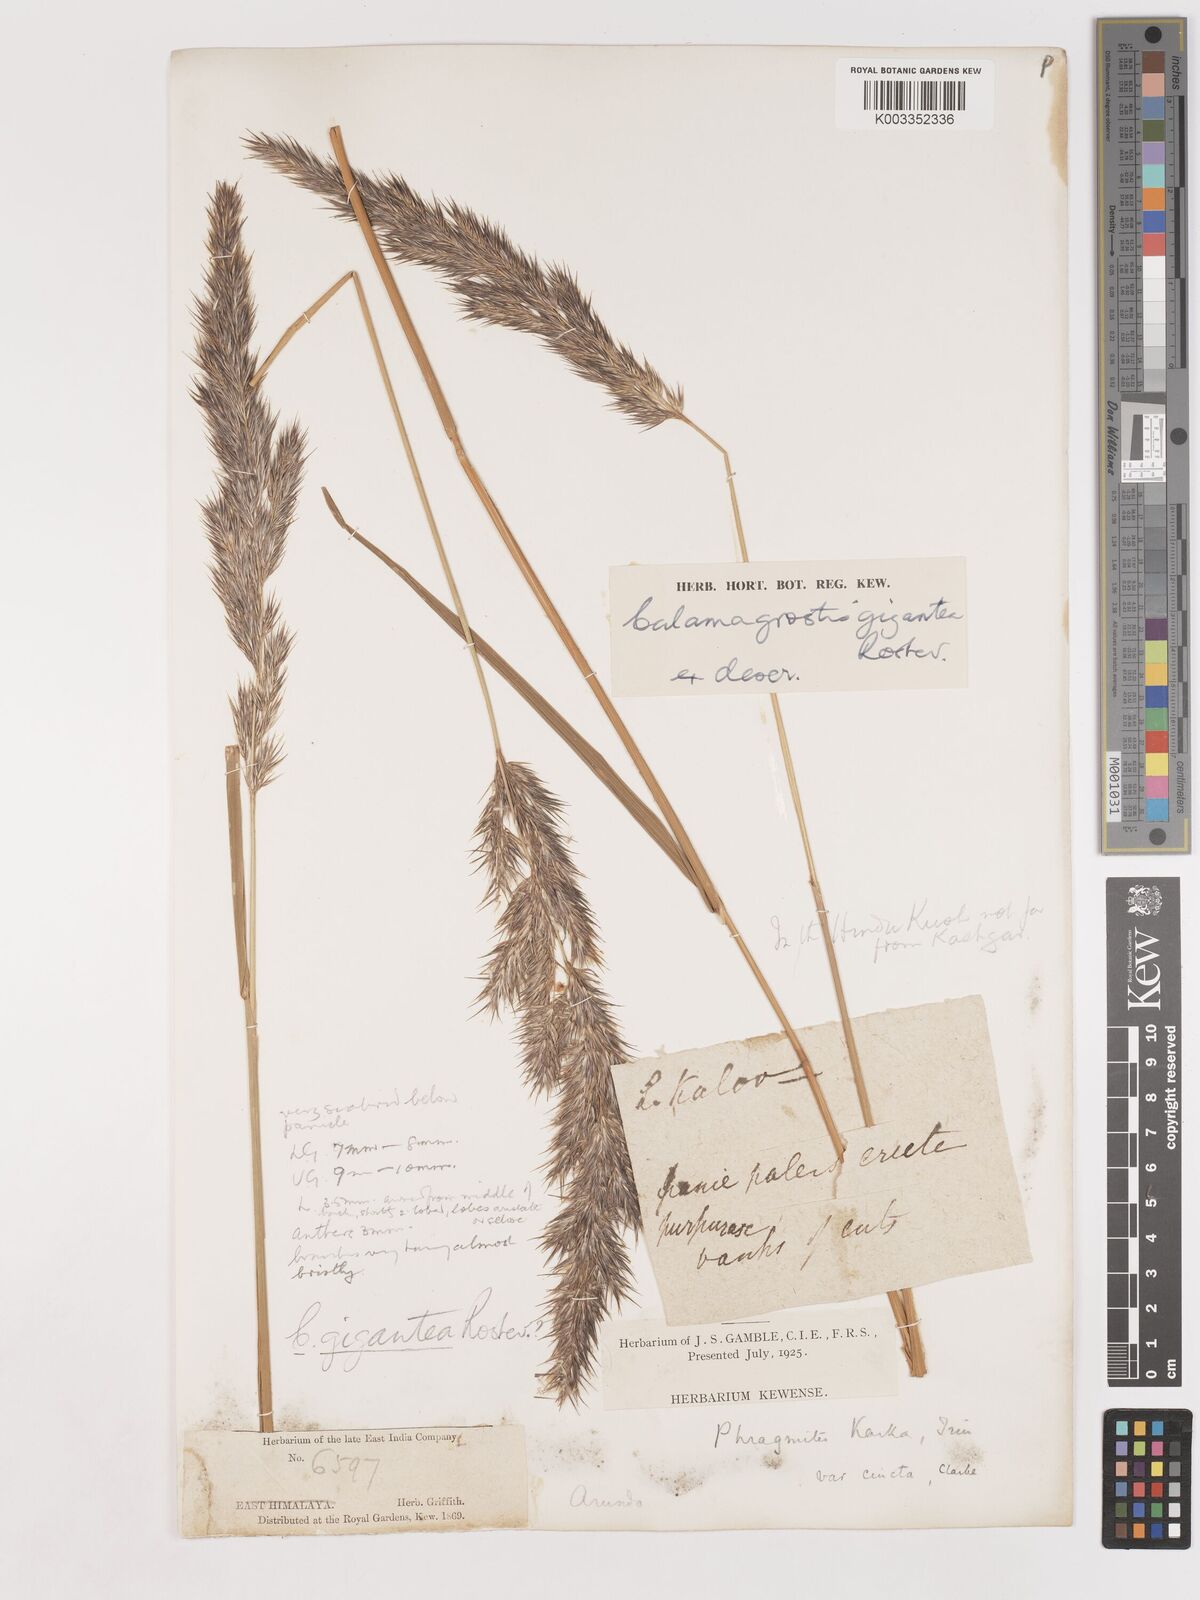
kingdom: Plantae
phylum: Tracheophyta
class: Liliopsida
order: Poales
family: Poaceae
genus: Calamagrostis
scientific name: Calamagrostis epigejos
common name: Wood small-reed
